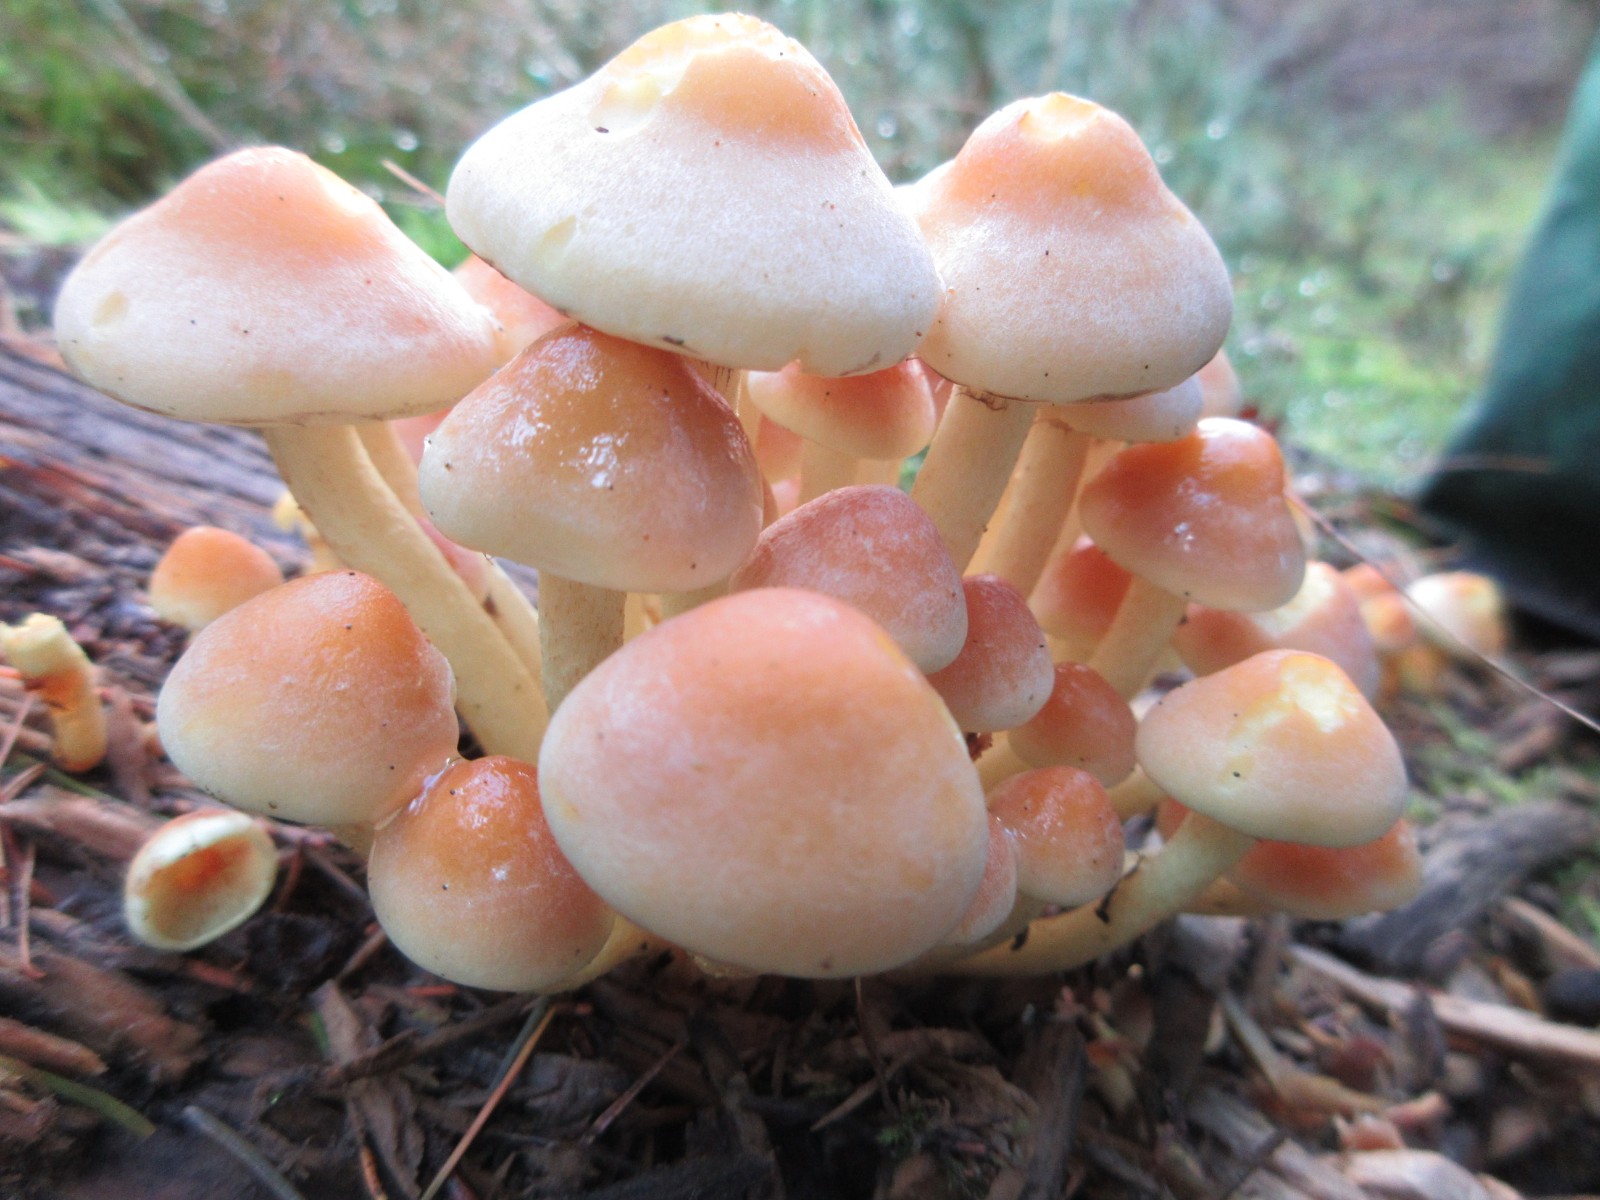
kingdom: Fungi
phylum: Basidiomycota
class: Agaricomycetes
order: Agaricales
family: Strophariaceae
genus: Hypholoma
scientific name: Hypholoma fasciculare
